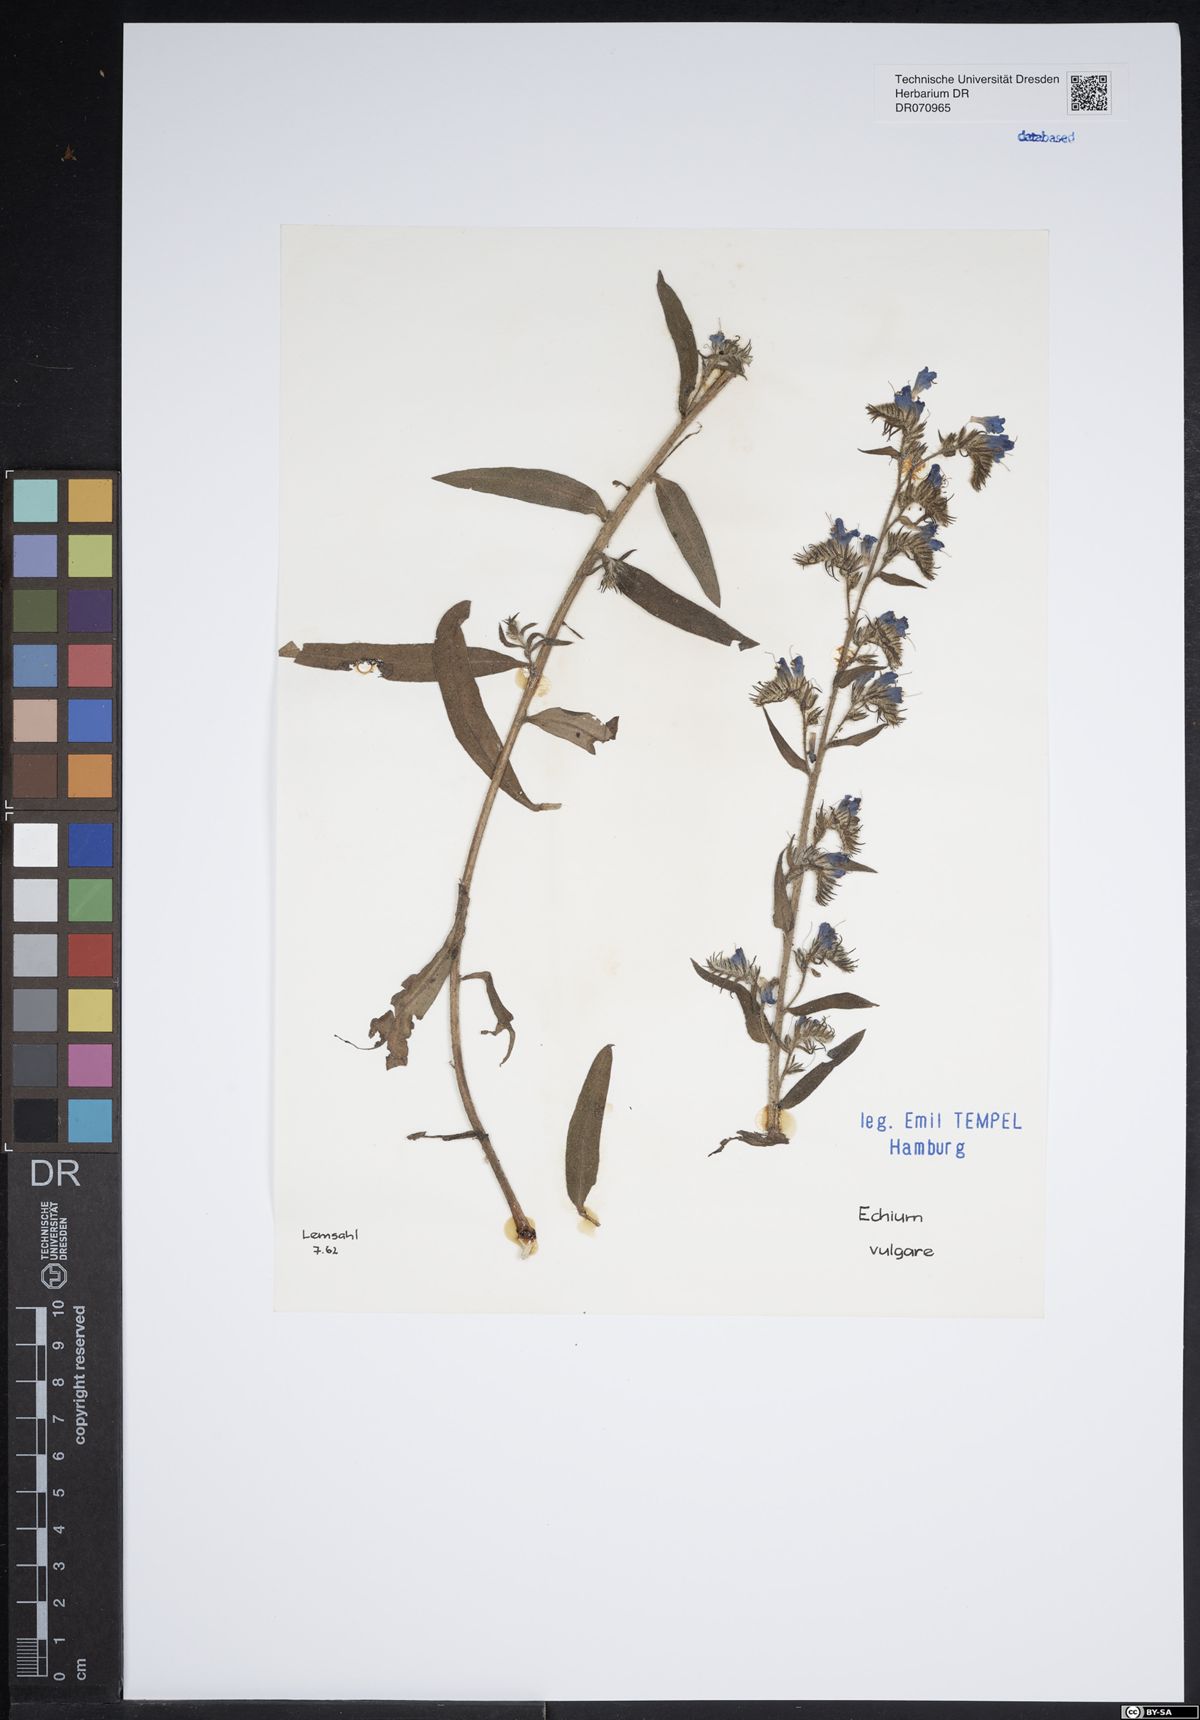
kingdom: Plantae
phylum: Tracheophyta
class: Magnoliopsida
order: Boraginales
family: Boraginaceae
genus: Echium
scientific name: Echium vulgare
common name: Common viper's bugloss
